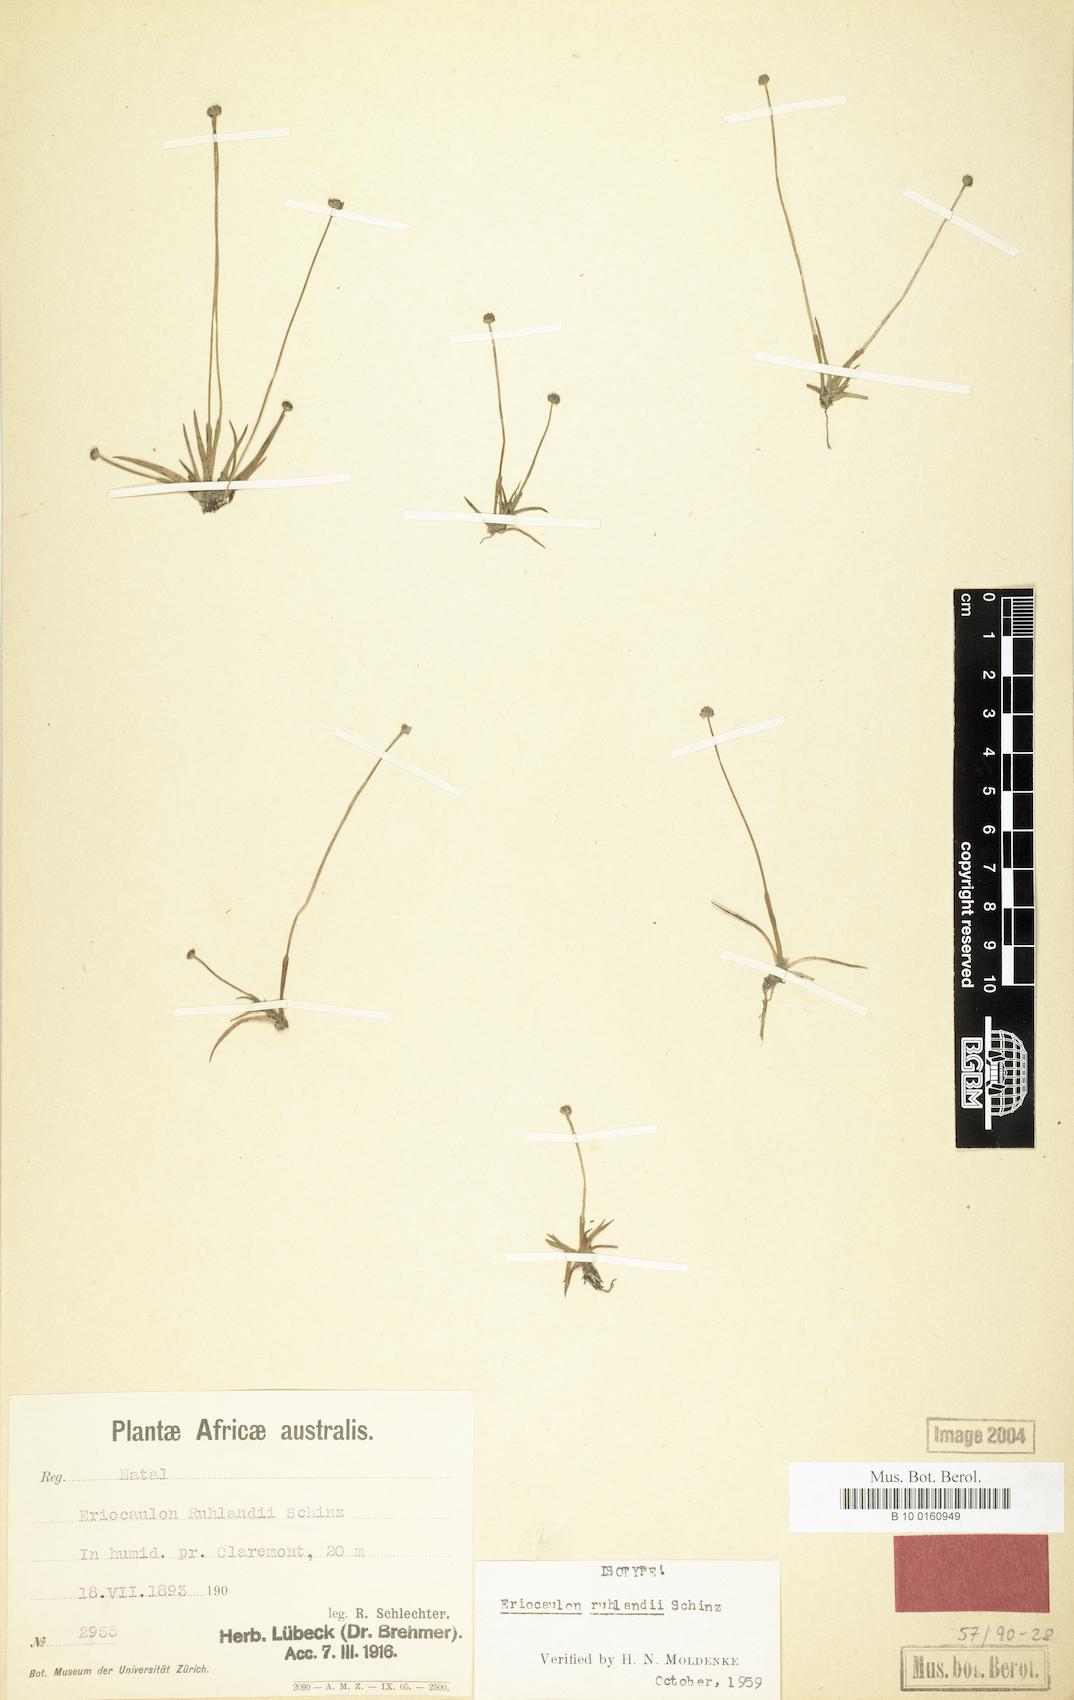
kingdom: Plantae
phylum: Tracheophyta
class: Liliopsida
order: Poales
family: Eriocaulaceae
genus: Eriocaulon
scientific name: Eriocaulon schlechteri
